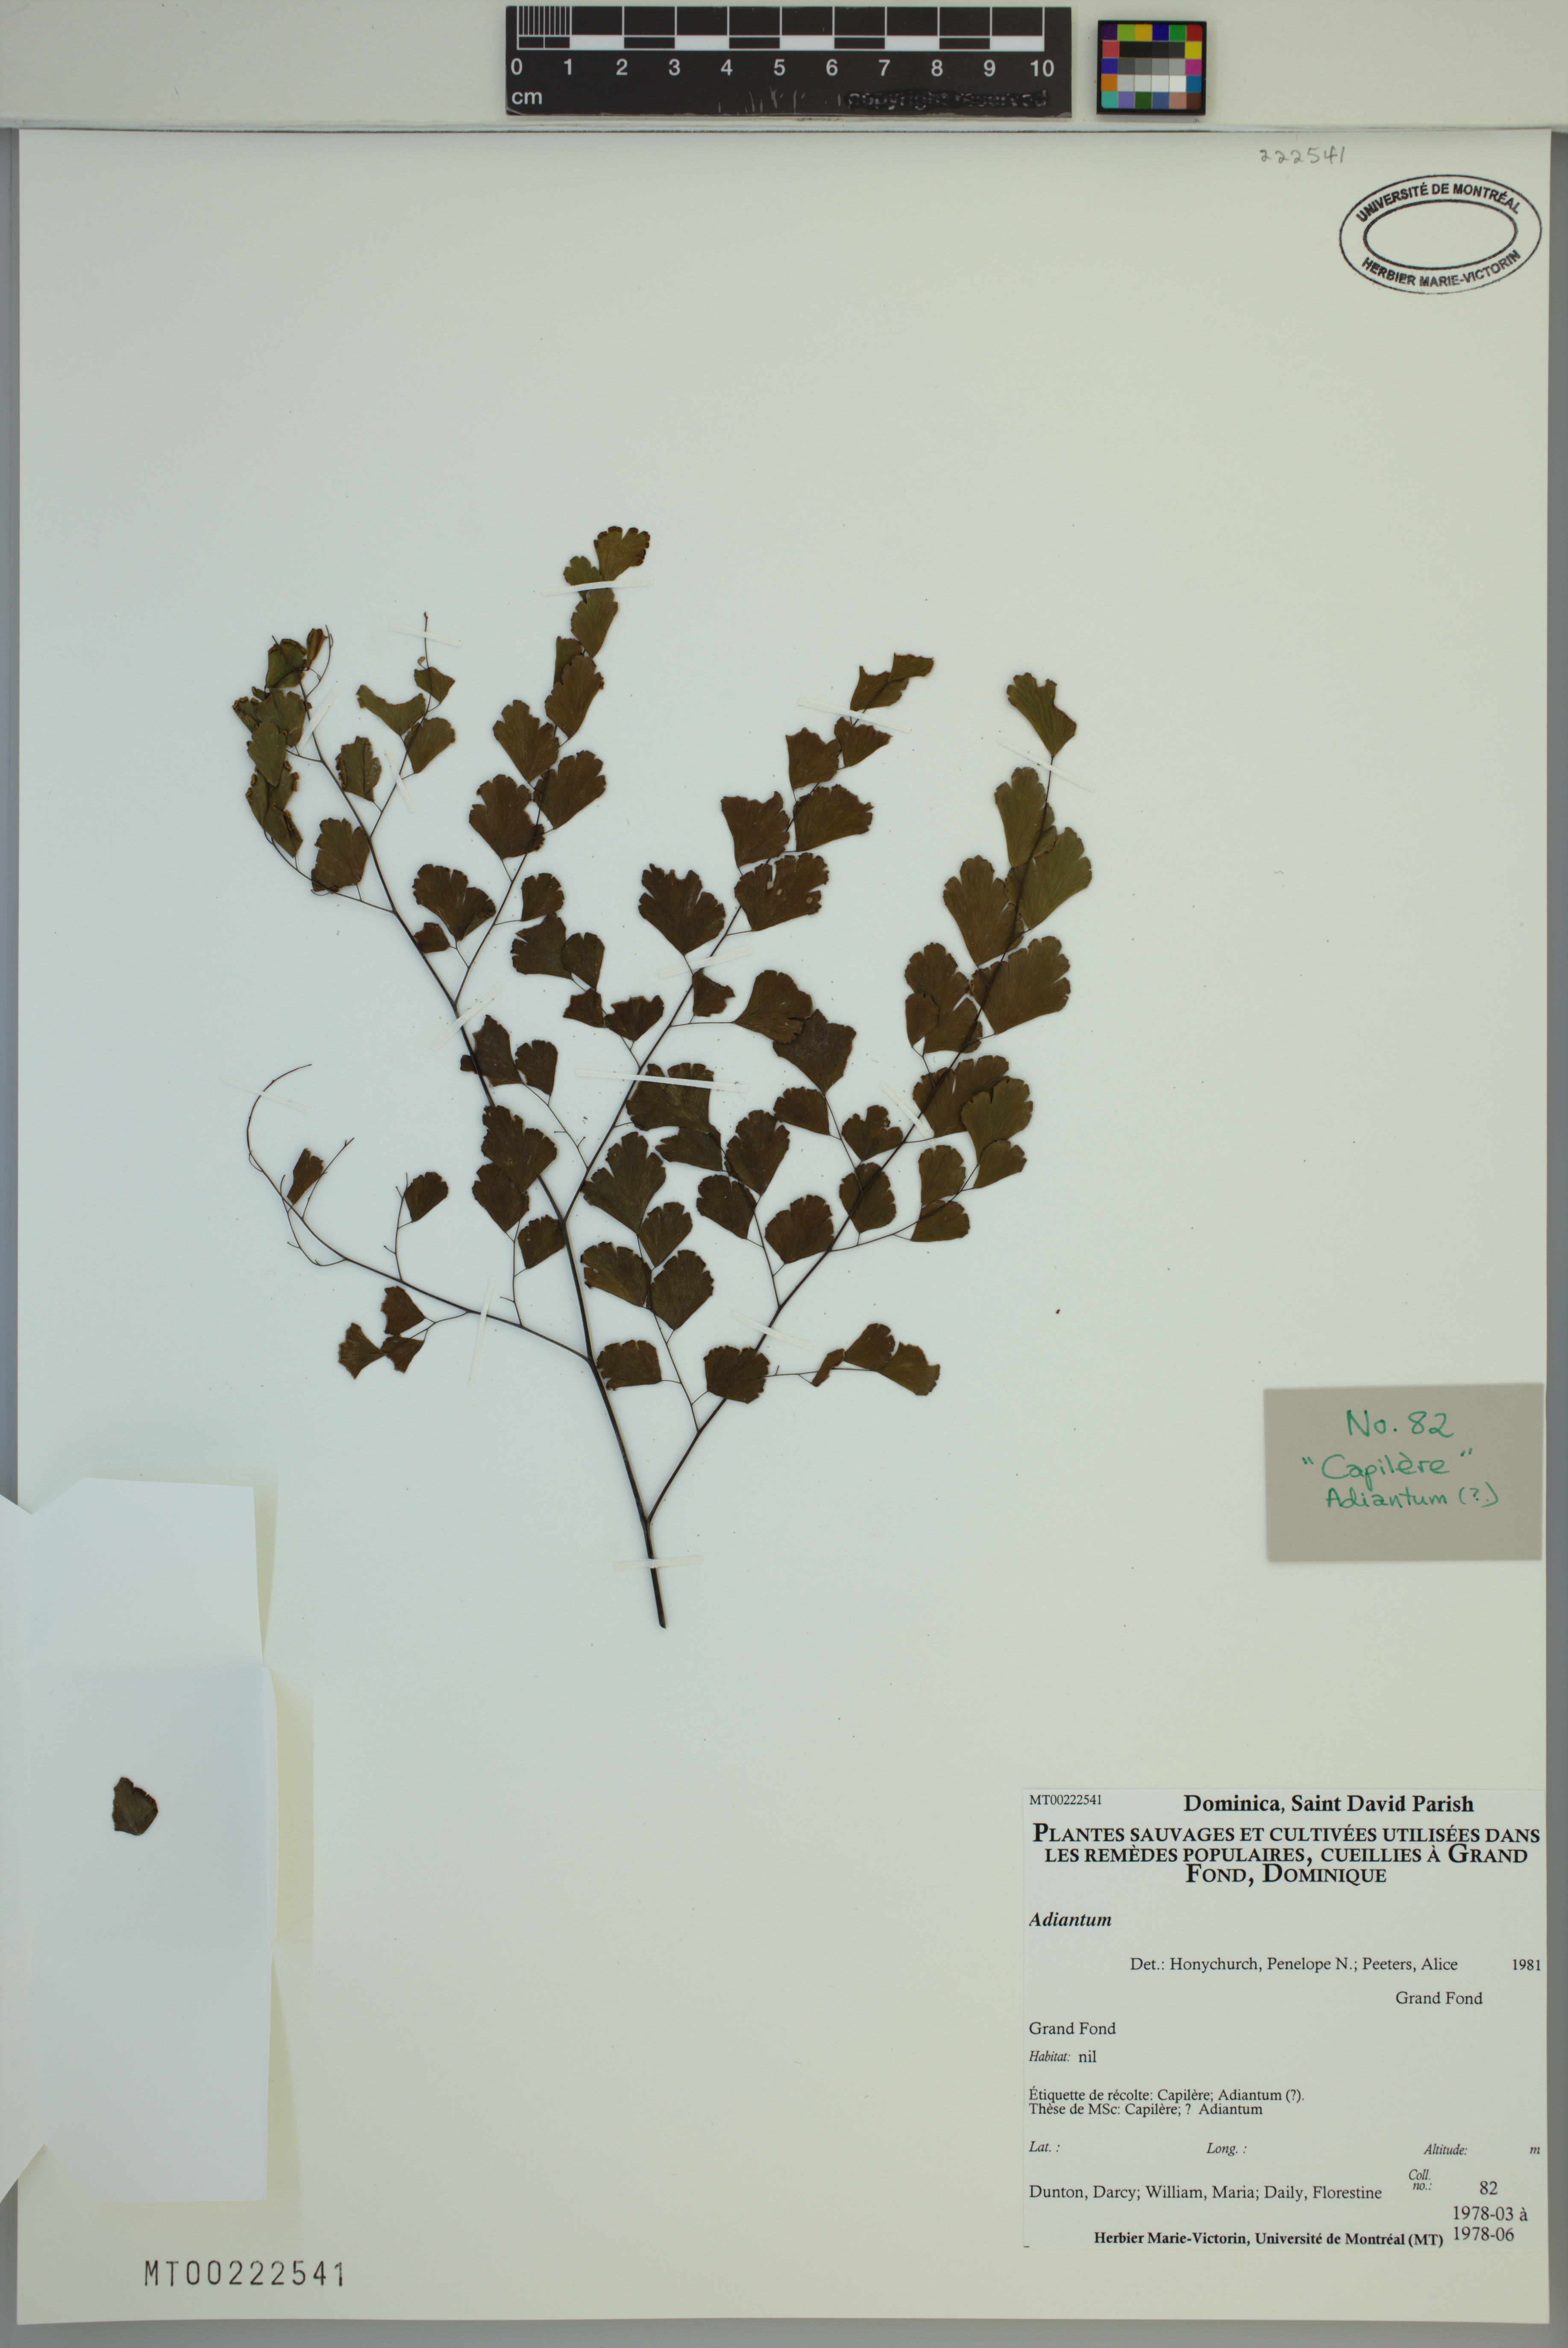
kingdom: Plantae
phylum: Tracheophyta
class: Polypodiopsida
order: Polypodiales
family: Pteridaceae
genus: Adiantum
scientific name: Adiantum
